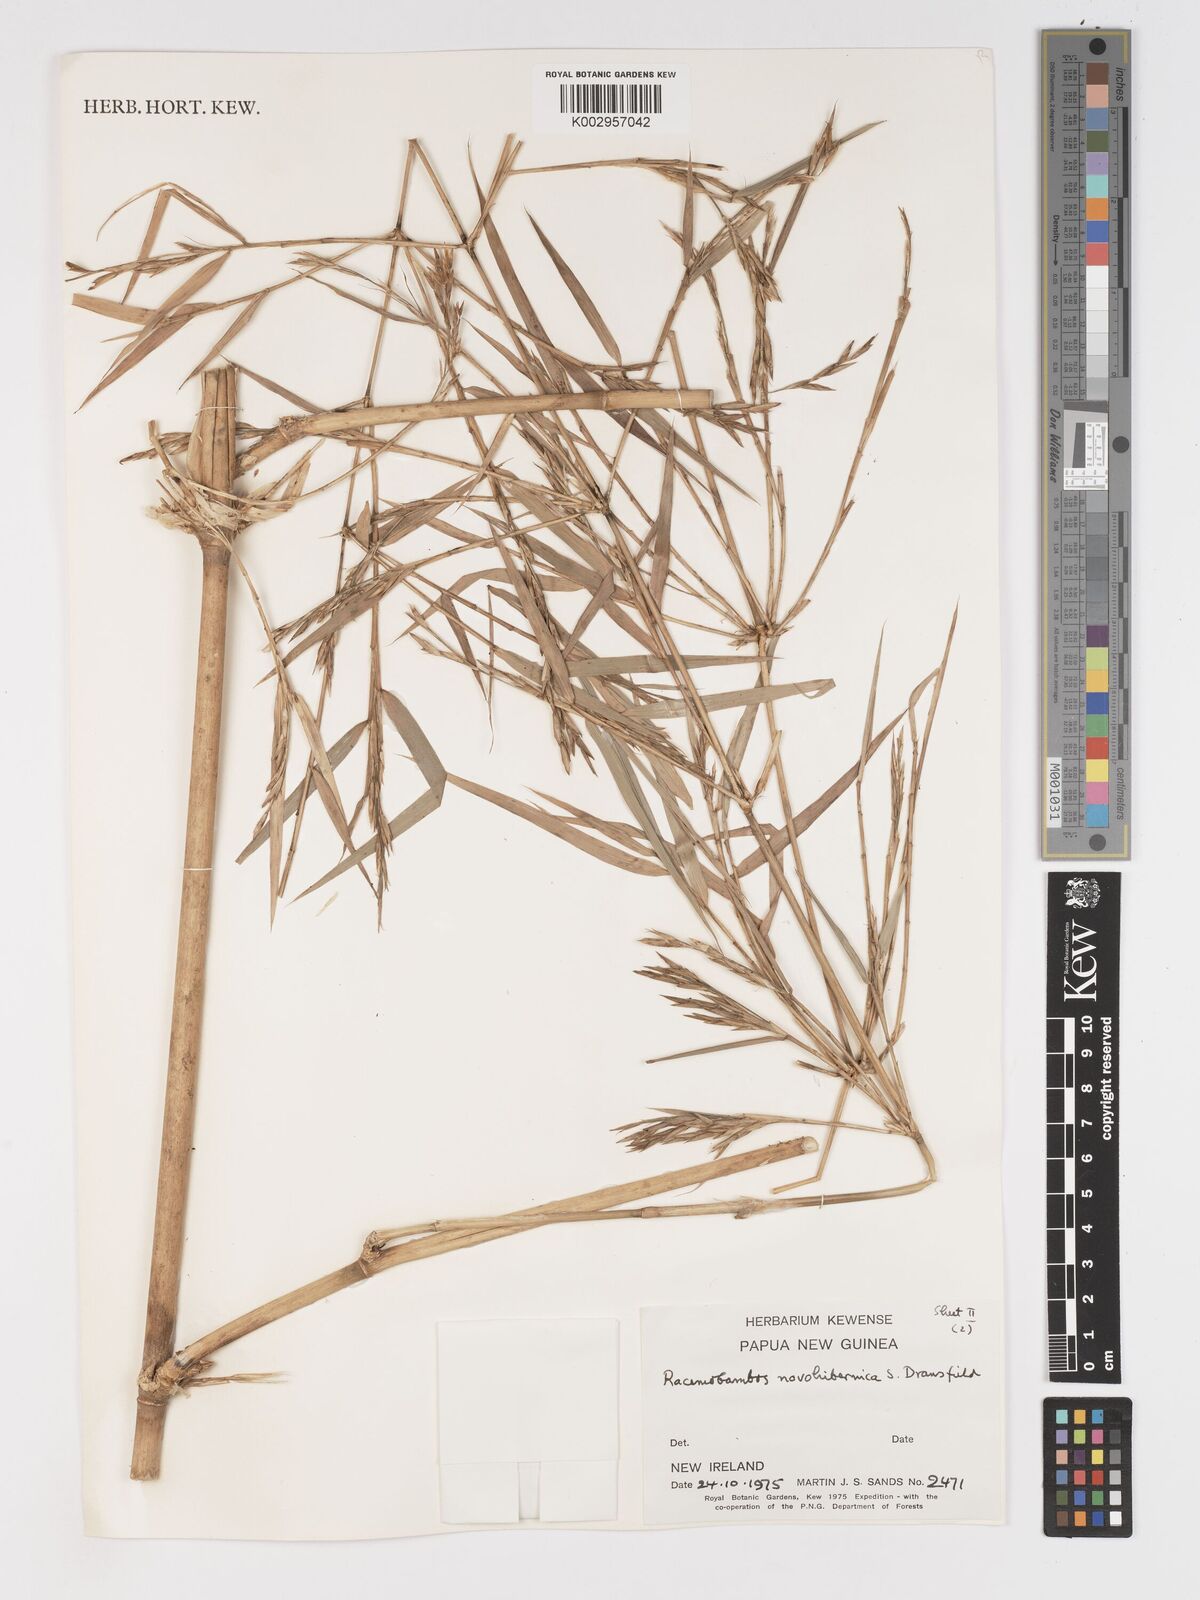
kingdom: Plantae
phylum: Tracheophyta
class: Liliopsida
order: Poales
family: Poaceae
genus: Racemobambos
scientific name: Racemobambos novohibernica
